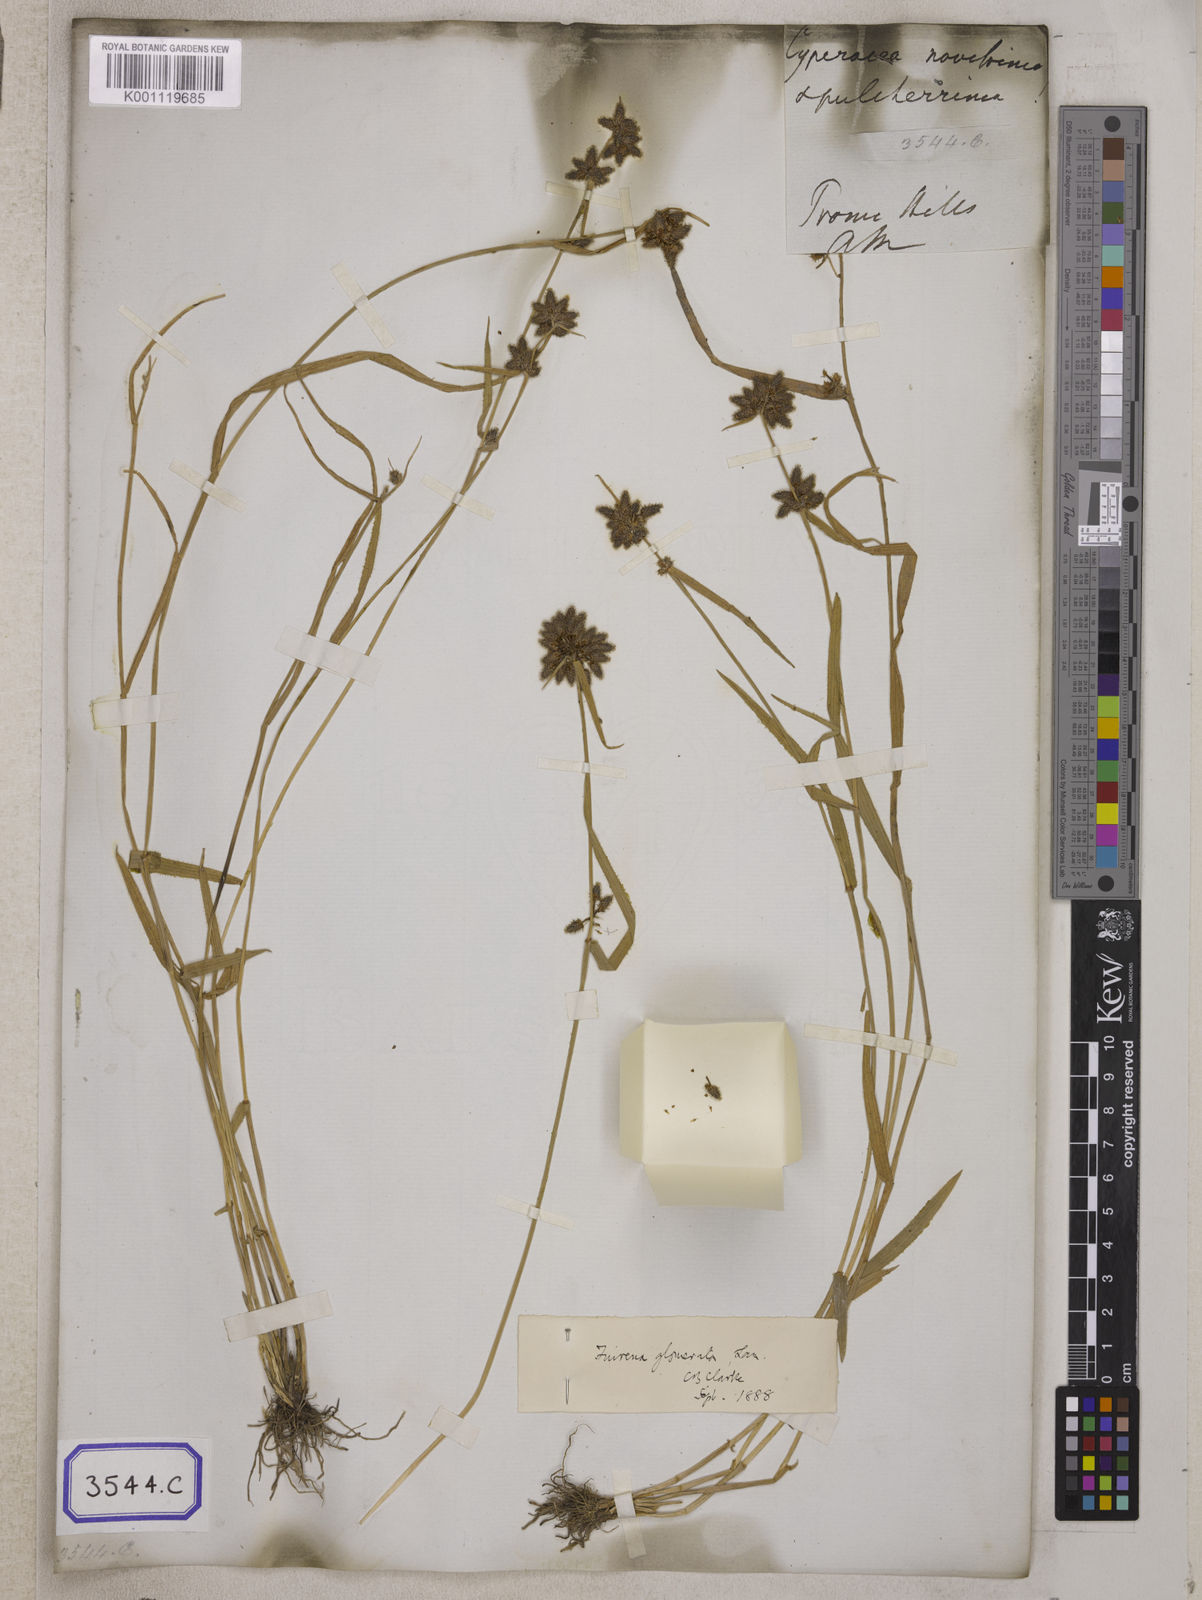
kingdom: Plantae
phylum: Tracheophyta
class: Liliopsida
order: Poales
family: Cyperaceae
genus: Fuirena
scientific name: Fuirena
